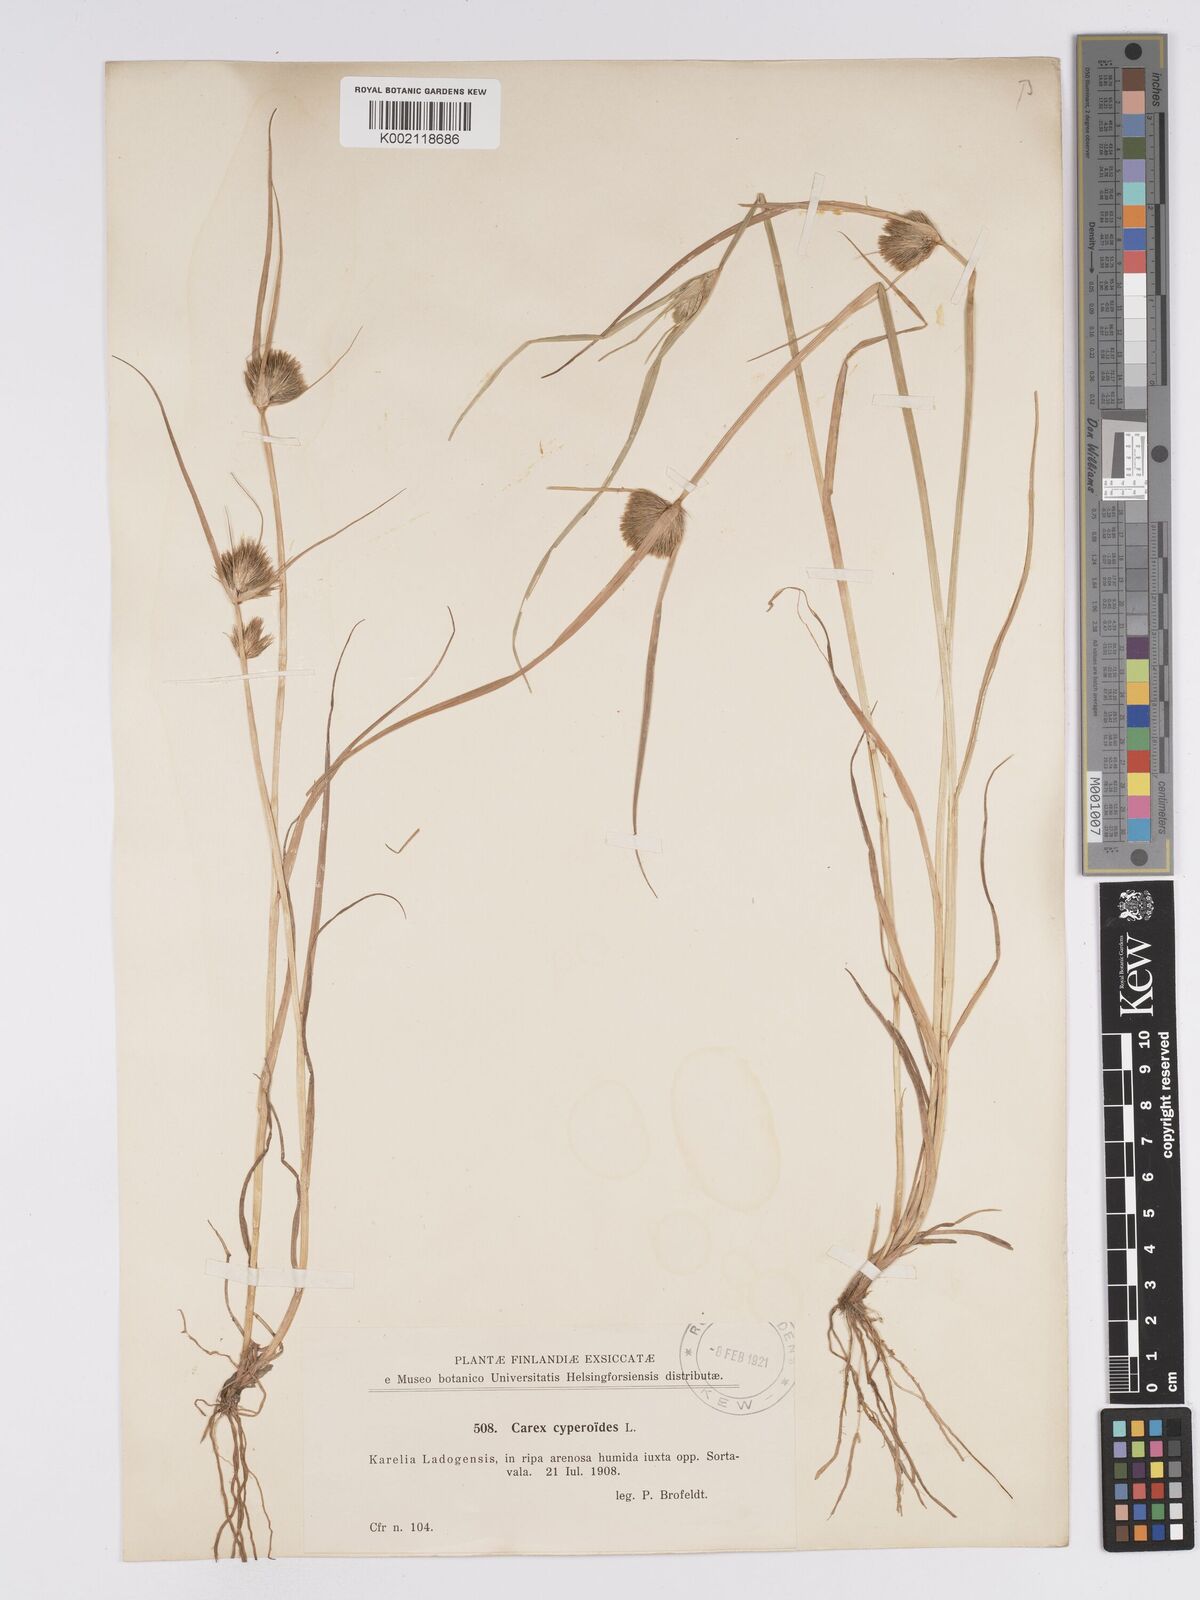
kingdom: Plantae
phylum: Tracheophyta
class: Liliopsida
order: Poales
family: Cyperaceae
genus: Carex
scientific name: Carex bohemica
